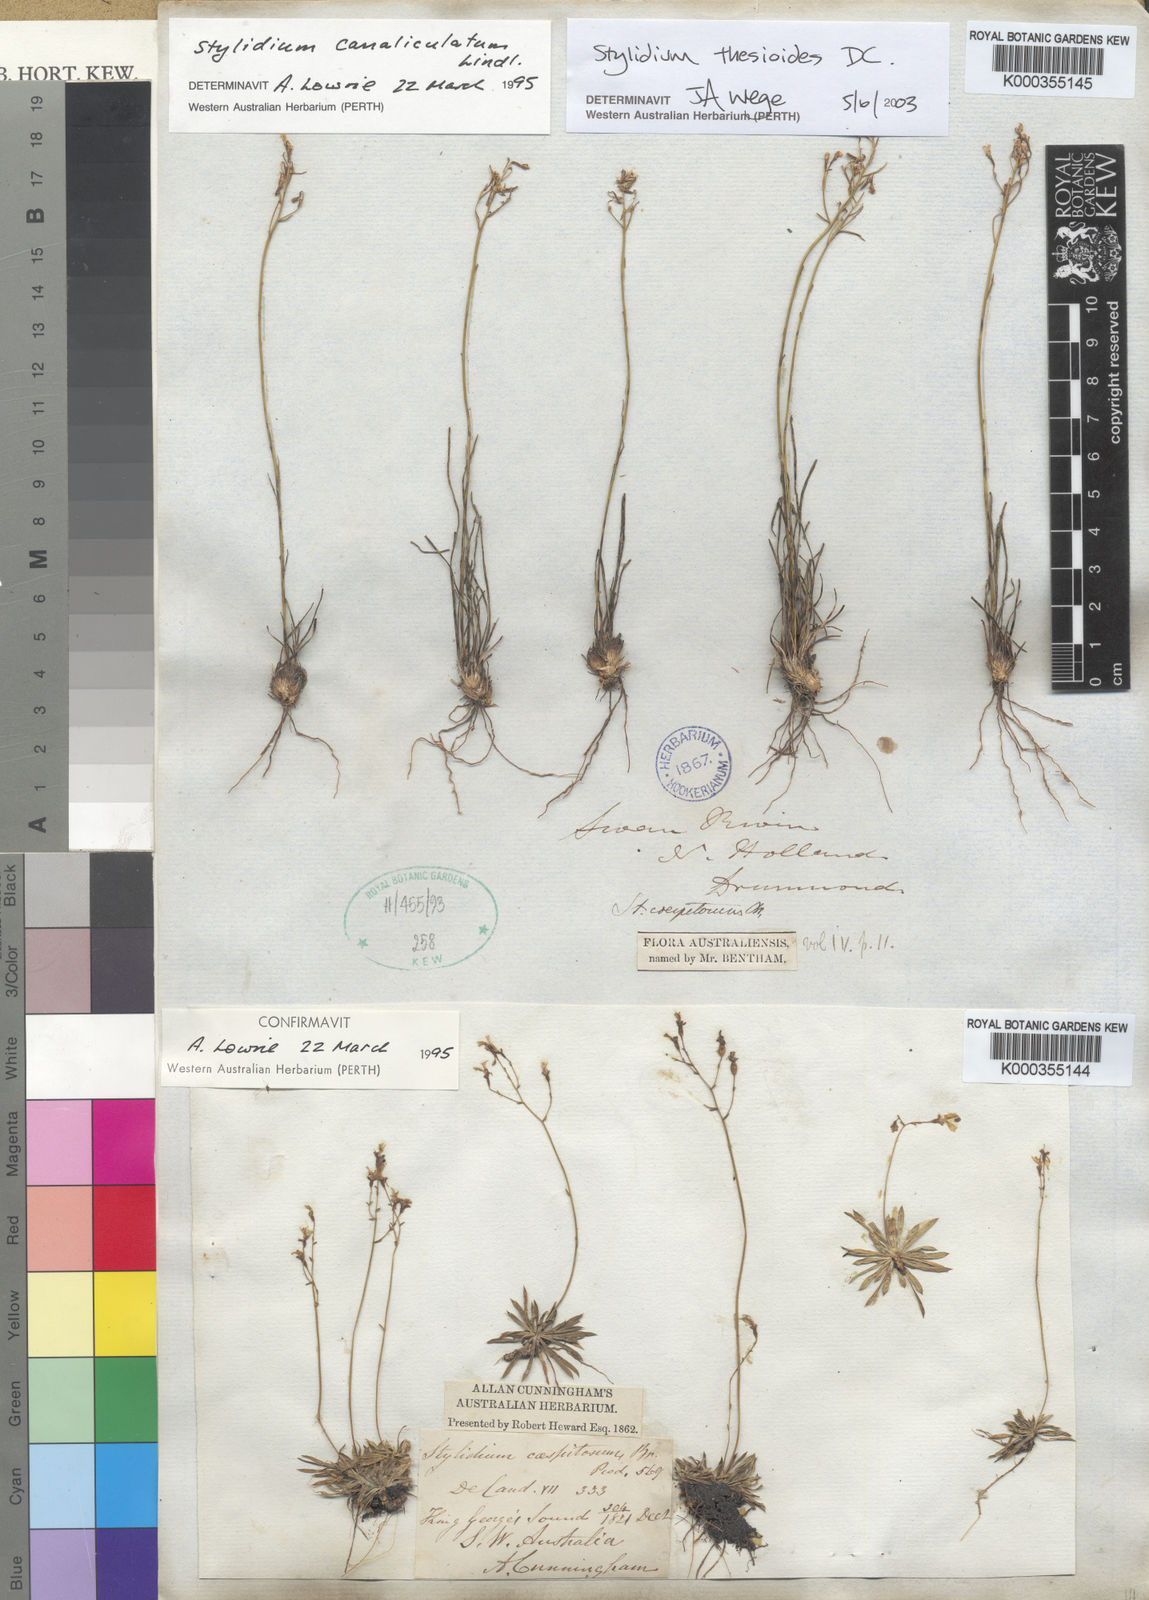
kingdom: Plantae
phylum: Tracheophyta
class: Magnoliopsida
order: Asterales
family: Stylidiaceae
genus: Stylidium
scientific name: Stylidium thesioides
